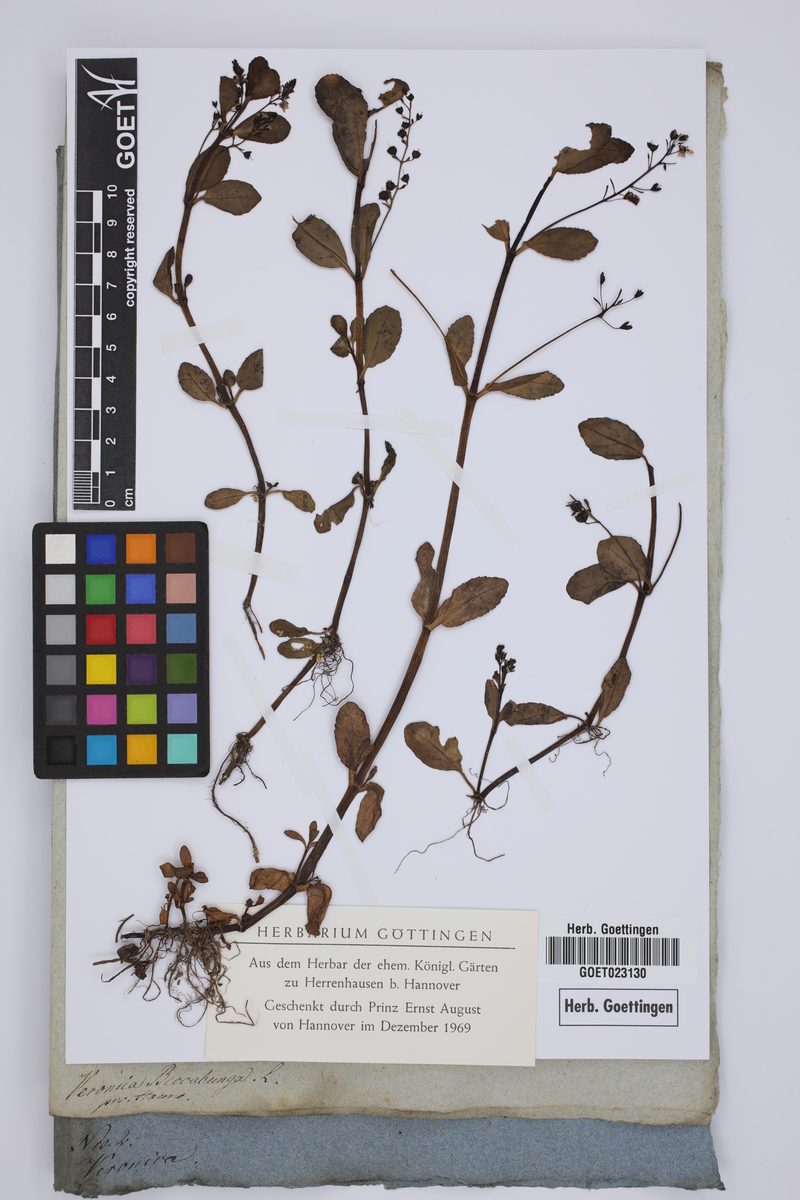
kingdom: Plantae
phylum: Tracheophyta
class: Magnoliopsida
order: Lamiales
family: Plantaginaceae
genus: Veronica
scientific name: Veronica beccabunga
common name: Brooklime
